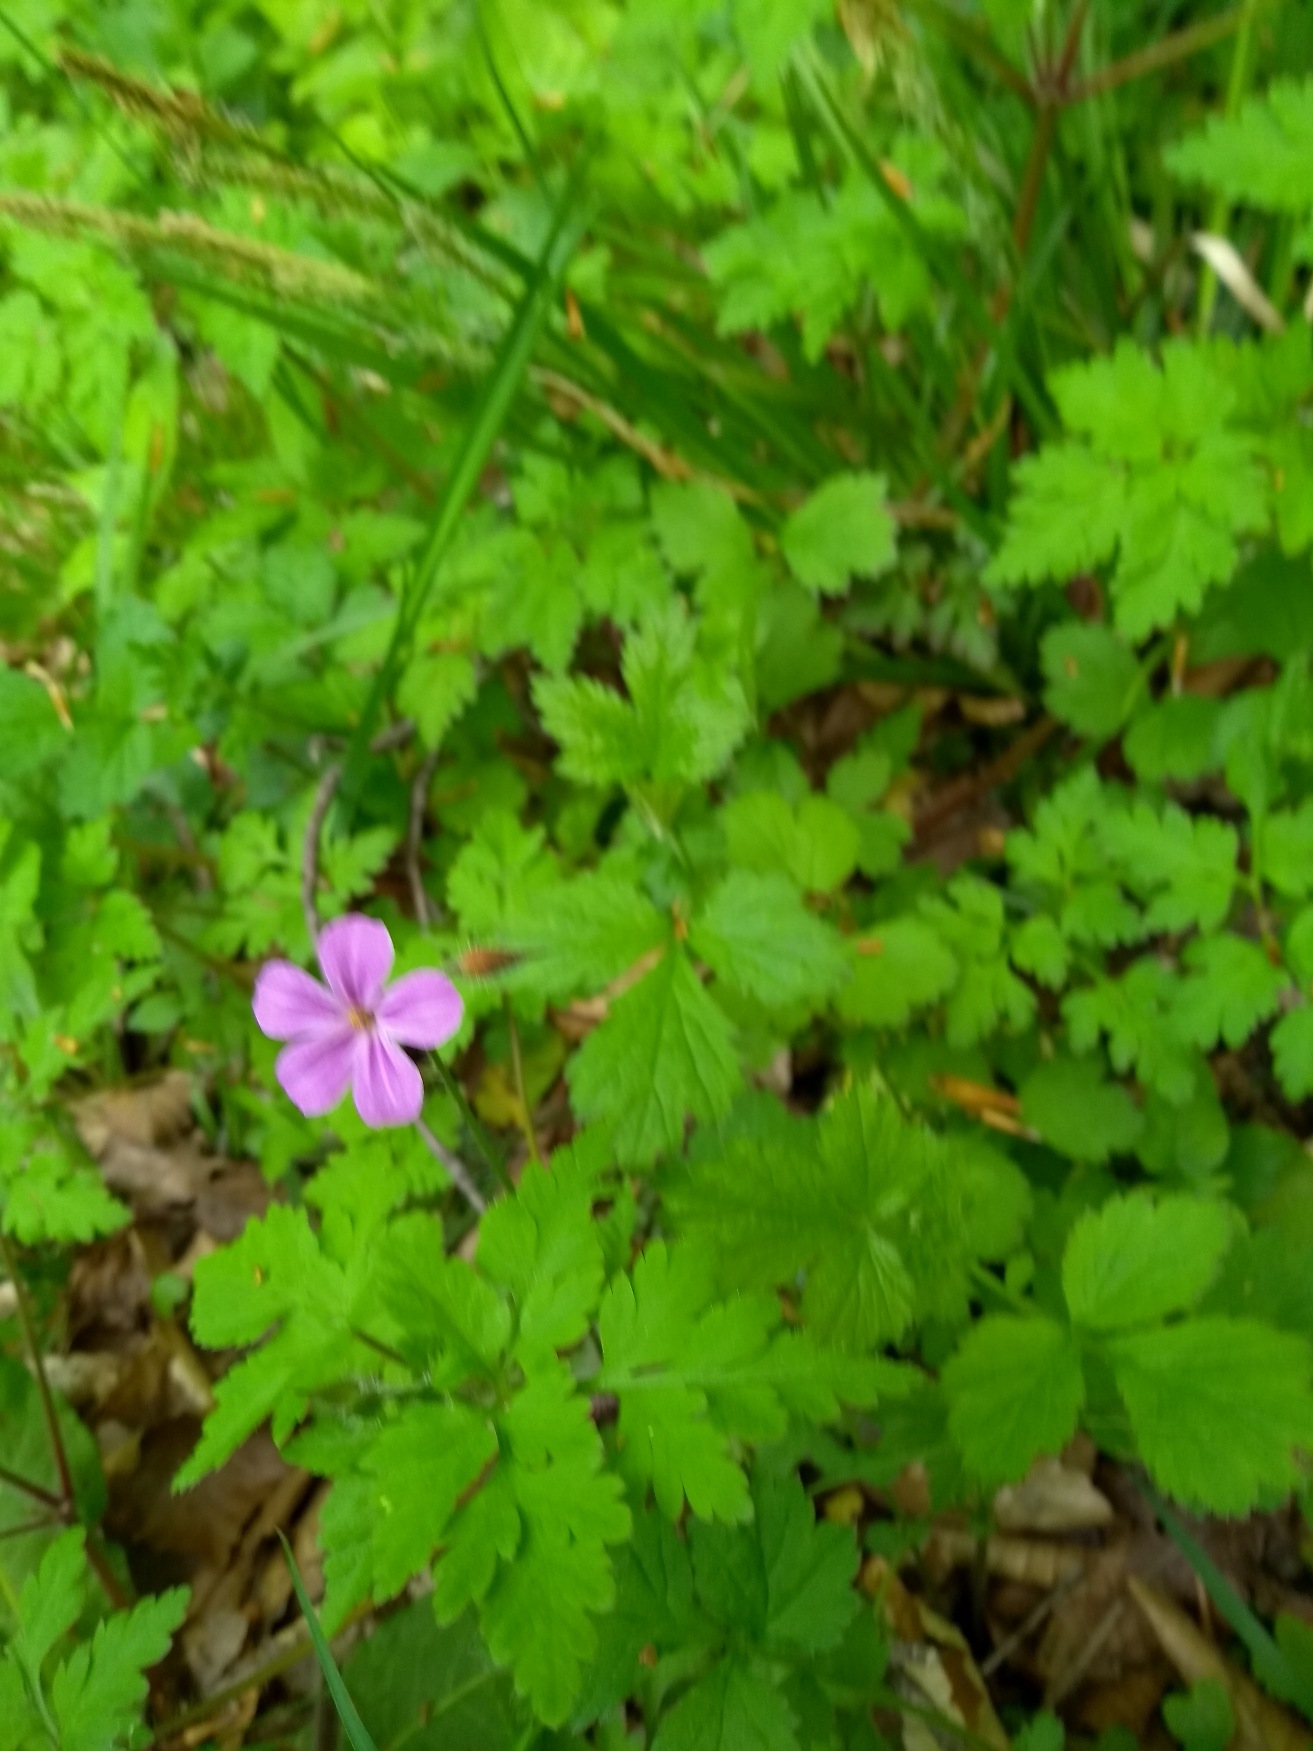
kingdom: Plantae
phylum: Tracheophyta
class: Magnoliopsida
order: Geraniales
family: Geraniaceae
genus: Geranium
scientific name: Geranium robertianum
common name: Stinkende storkenæb
